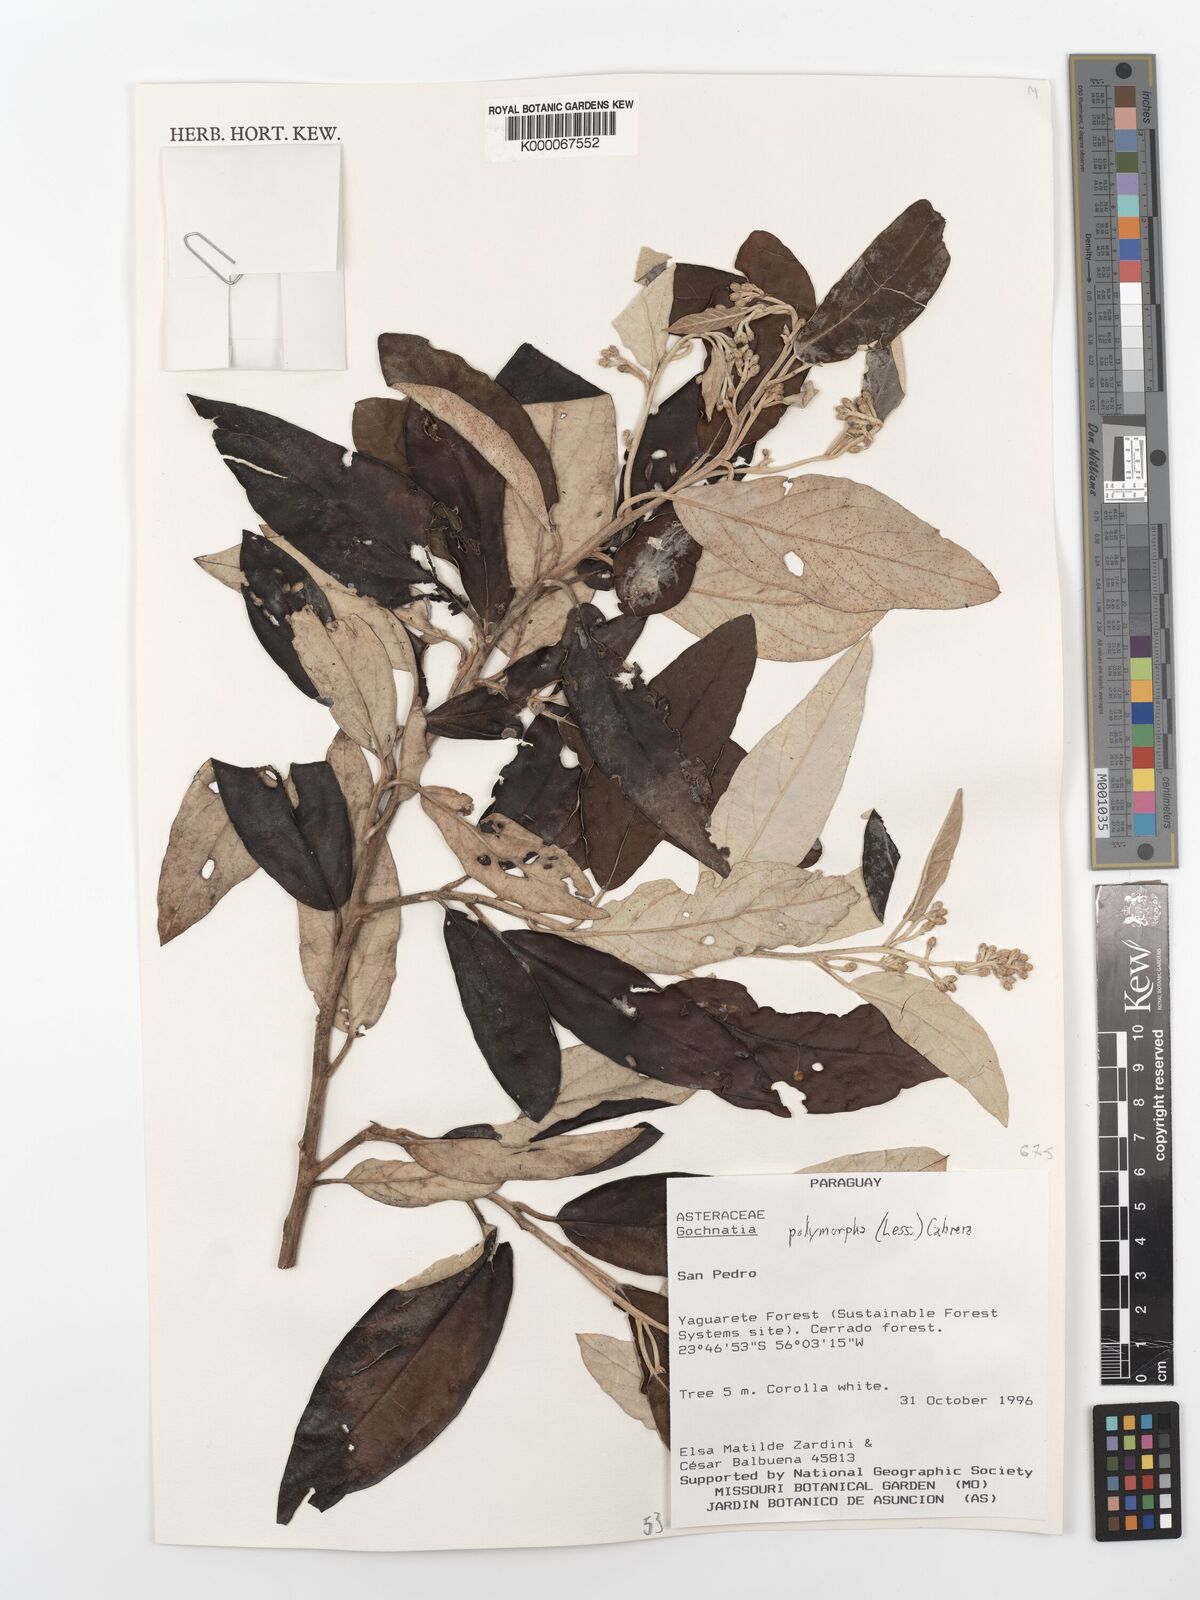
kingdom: Plantae
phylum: Tracheophyta
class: Magnoliopsida
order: Asterales
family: Asteraceae
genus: Moquiniastrum
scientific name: Moquiniastrum polymorphum
